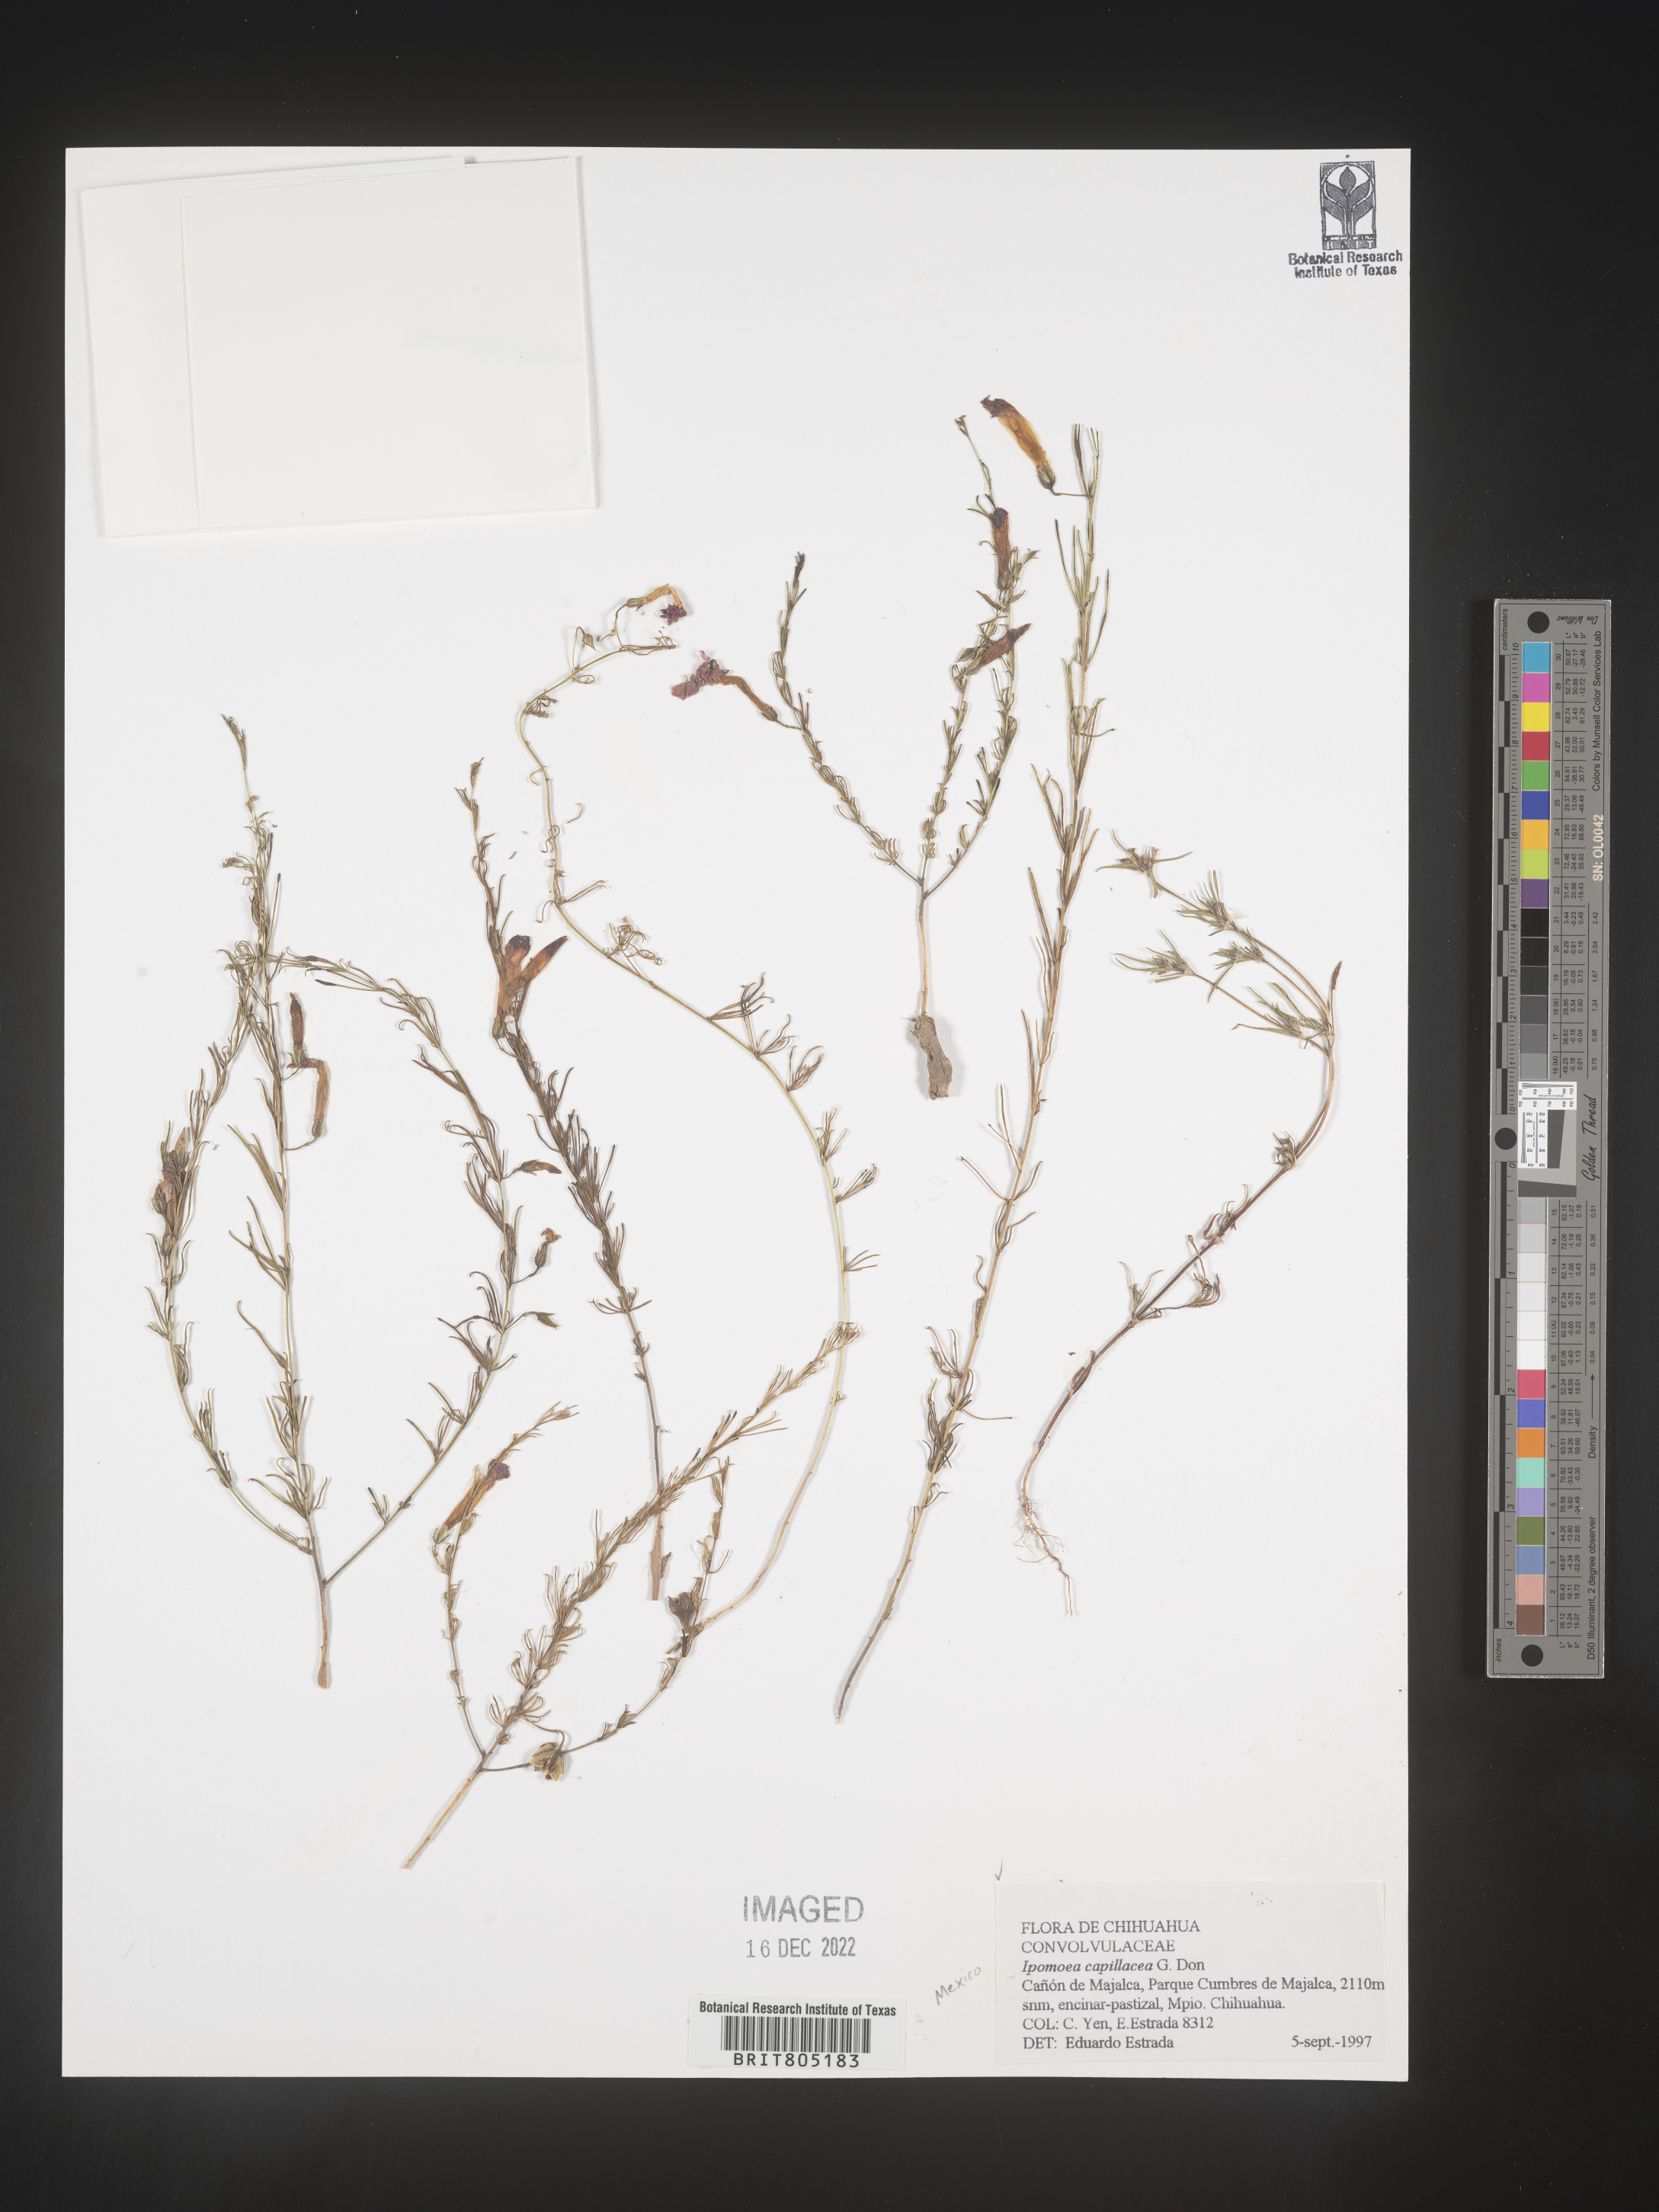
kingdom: Plantae
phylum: Tracheophyta
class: Magnoliopsida
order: Solanales
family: Convolvulaceae
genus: Ipomoea
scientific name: Ipomoea
